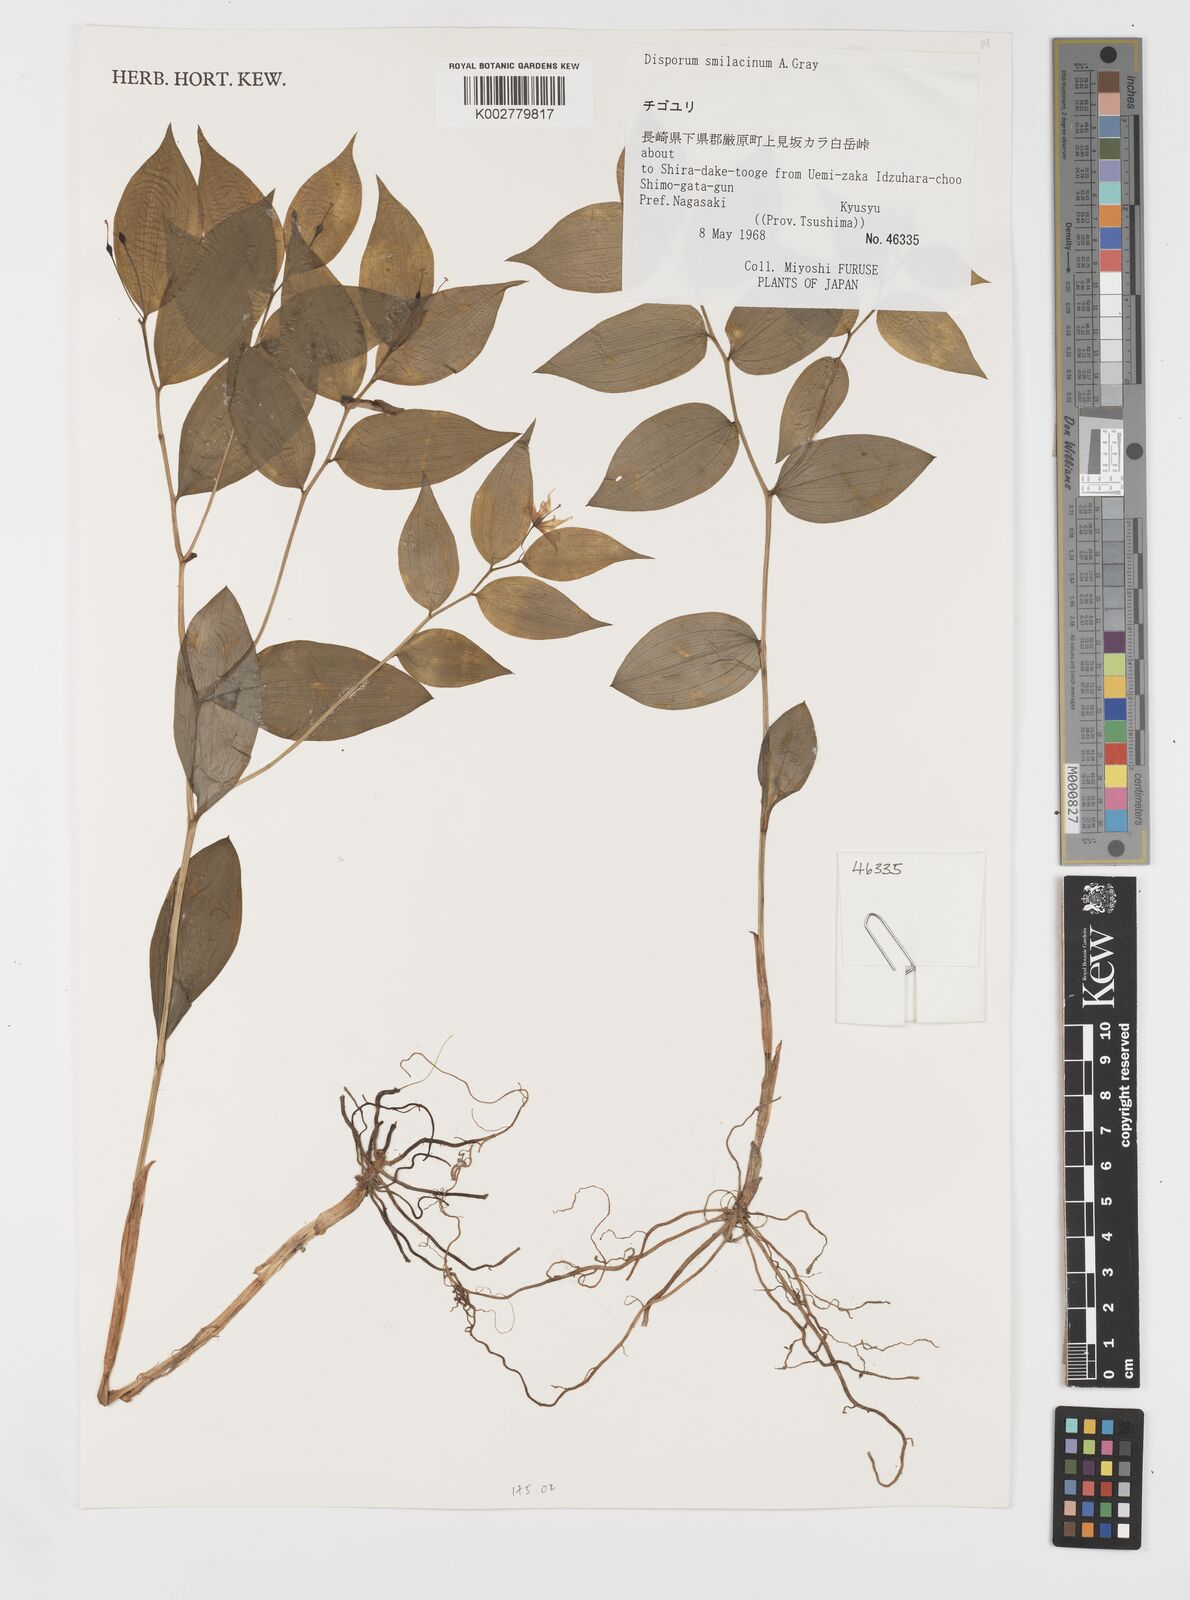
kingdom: Plantae
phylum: Tracheophyta
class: Liliopsida
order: Liliales
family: Colchicaceae
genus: Disporum
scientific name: Disporum smilacinum
